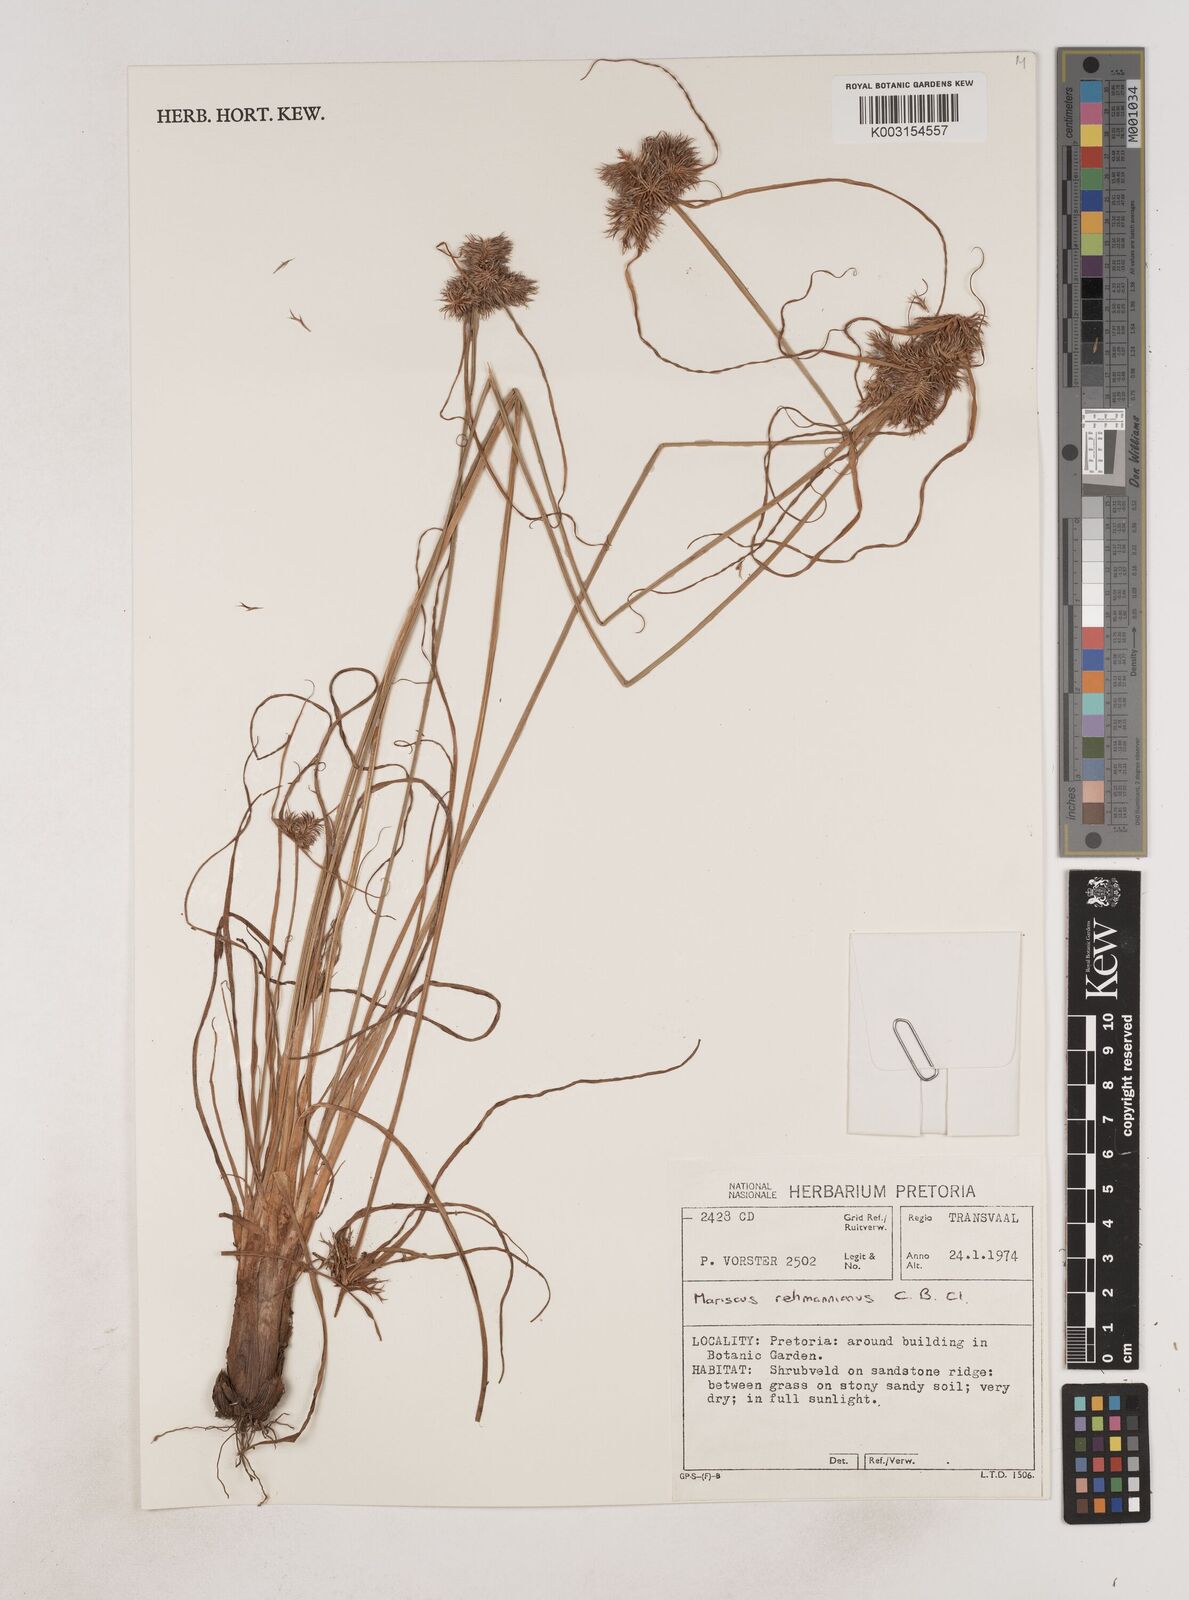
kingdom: Plantae
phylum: Tracheophyta
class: Liliopsida
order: Poales
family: Cyperaceae
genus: Cyperus
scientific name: Cyperus indecorus
